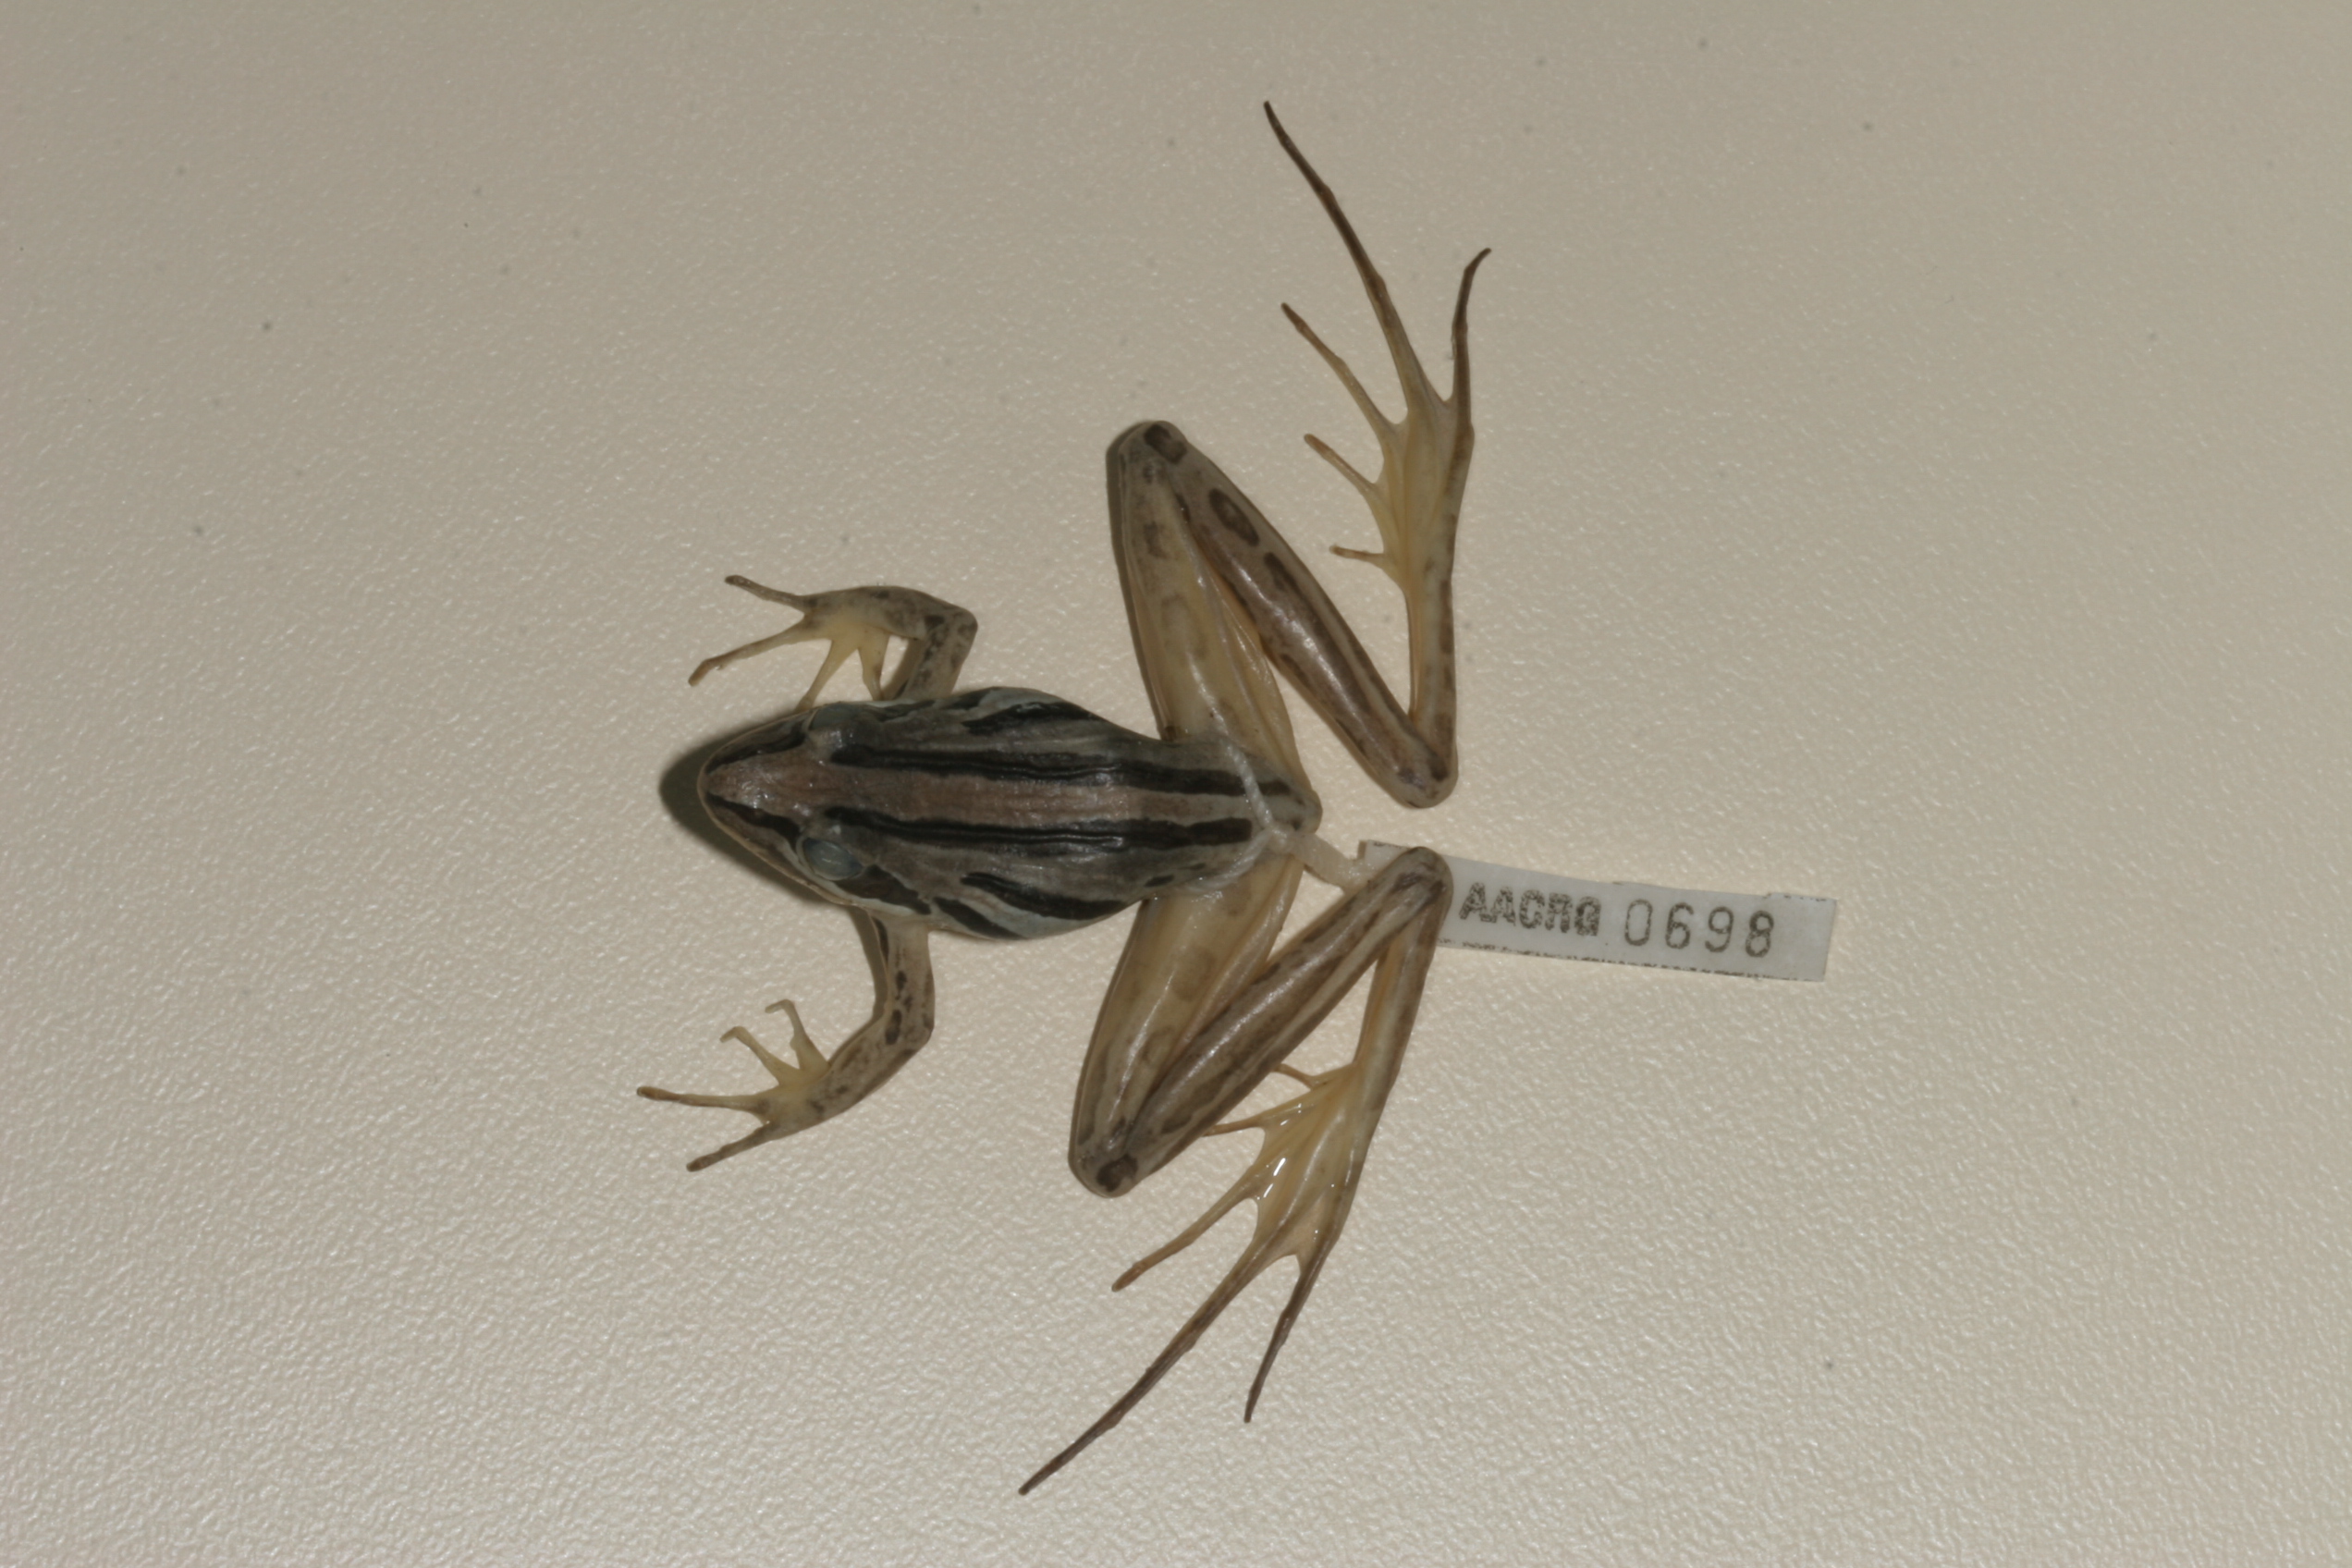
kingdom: Animalia
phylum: Chordata
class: Amphibia
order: Anura
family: Pyxicephalidae
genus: Strongylopus
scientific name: Strongylopus fasciatus
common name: Striped stream frog
